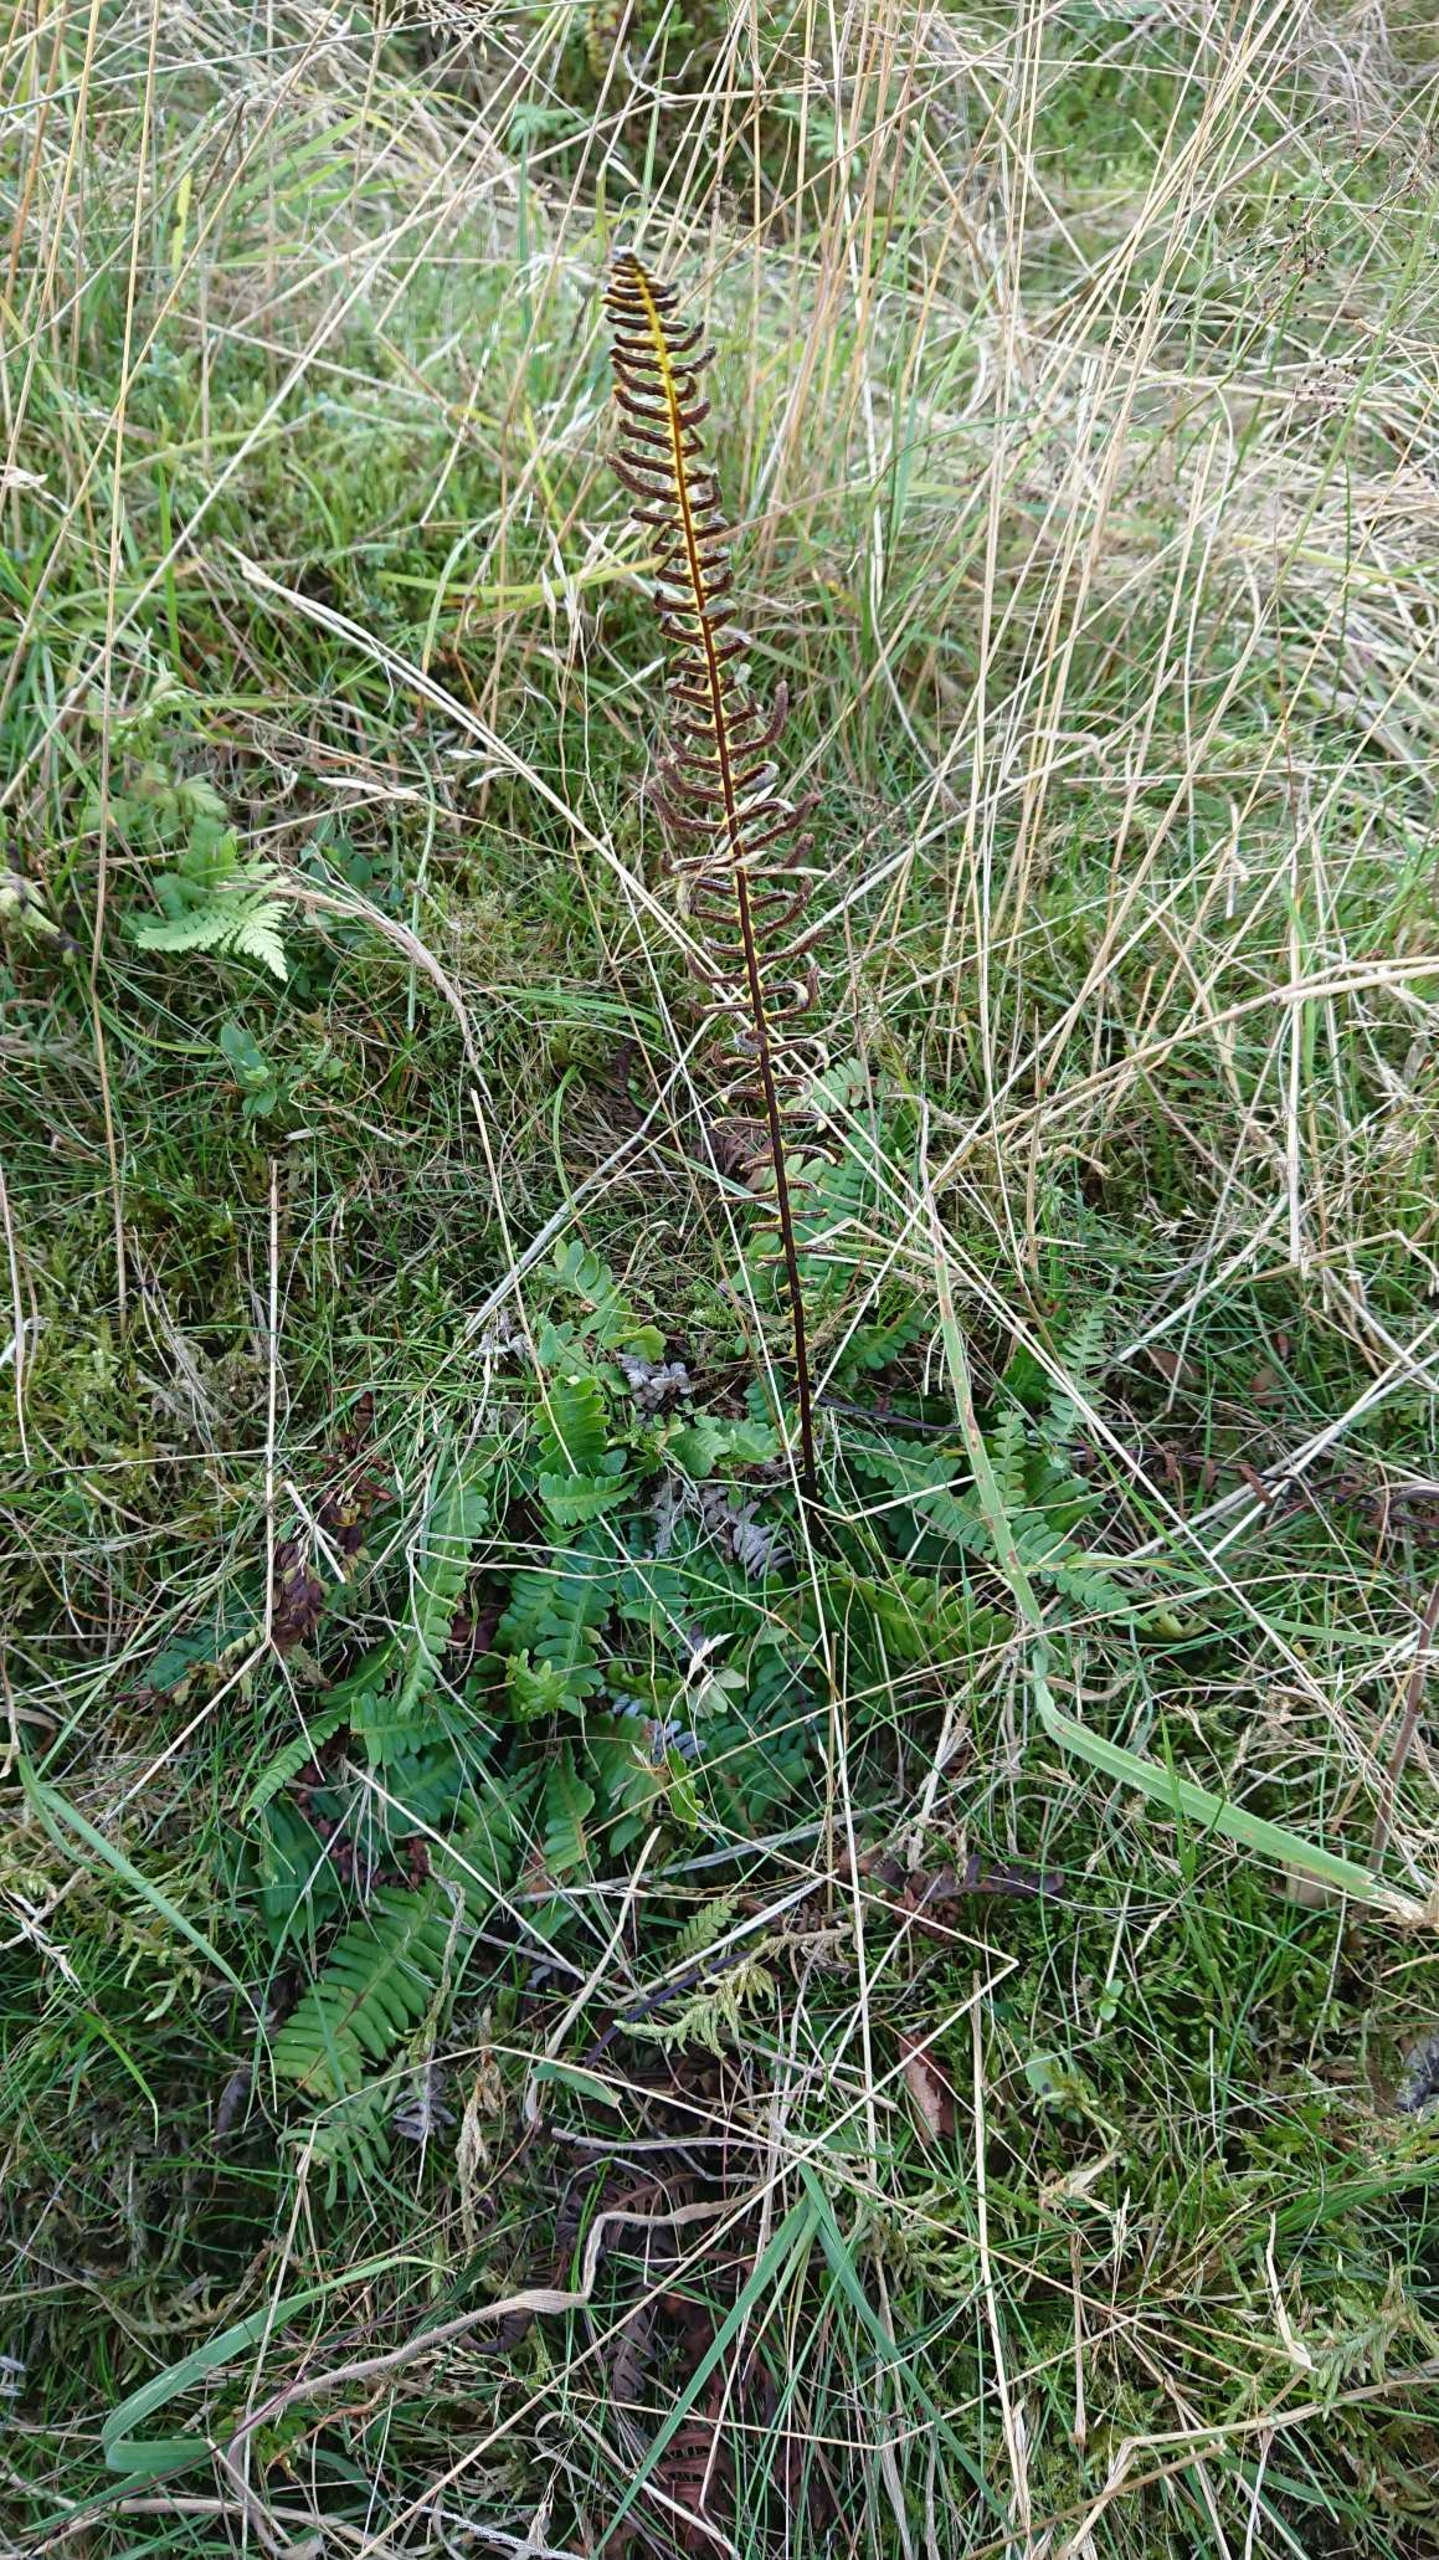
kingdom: Plantae
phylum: Tracheophyta
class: Polypodiopsida
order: Polypodiales
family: Blechnaceae
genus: Struthiopteris
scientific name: Struthiopteris spicant
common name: Kambregne
